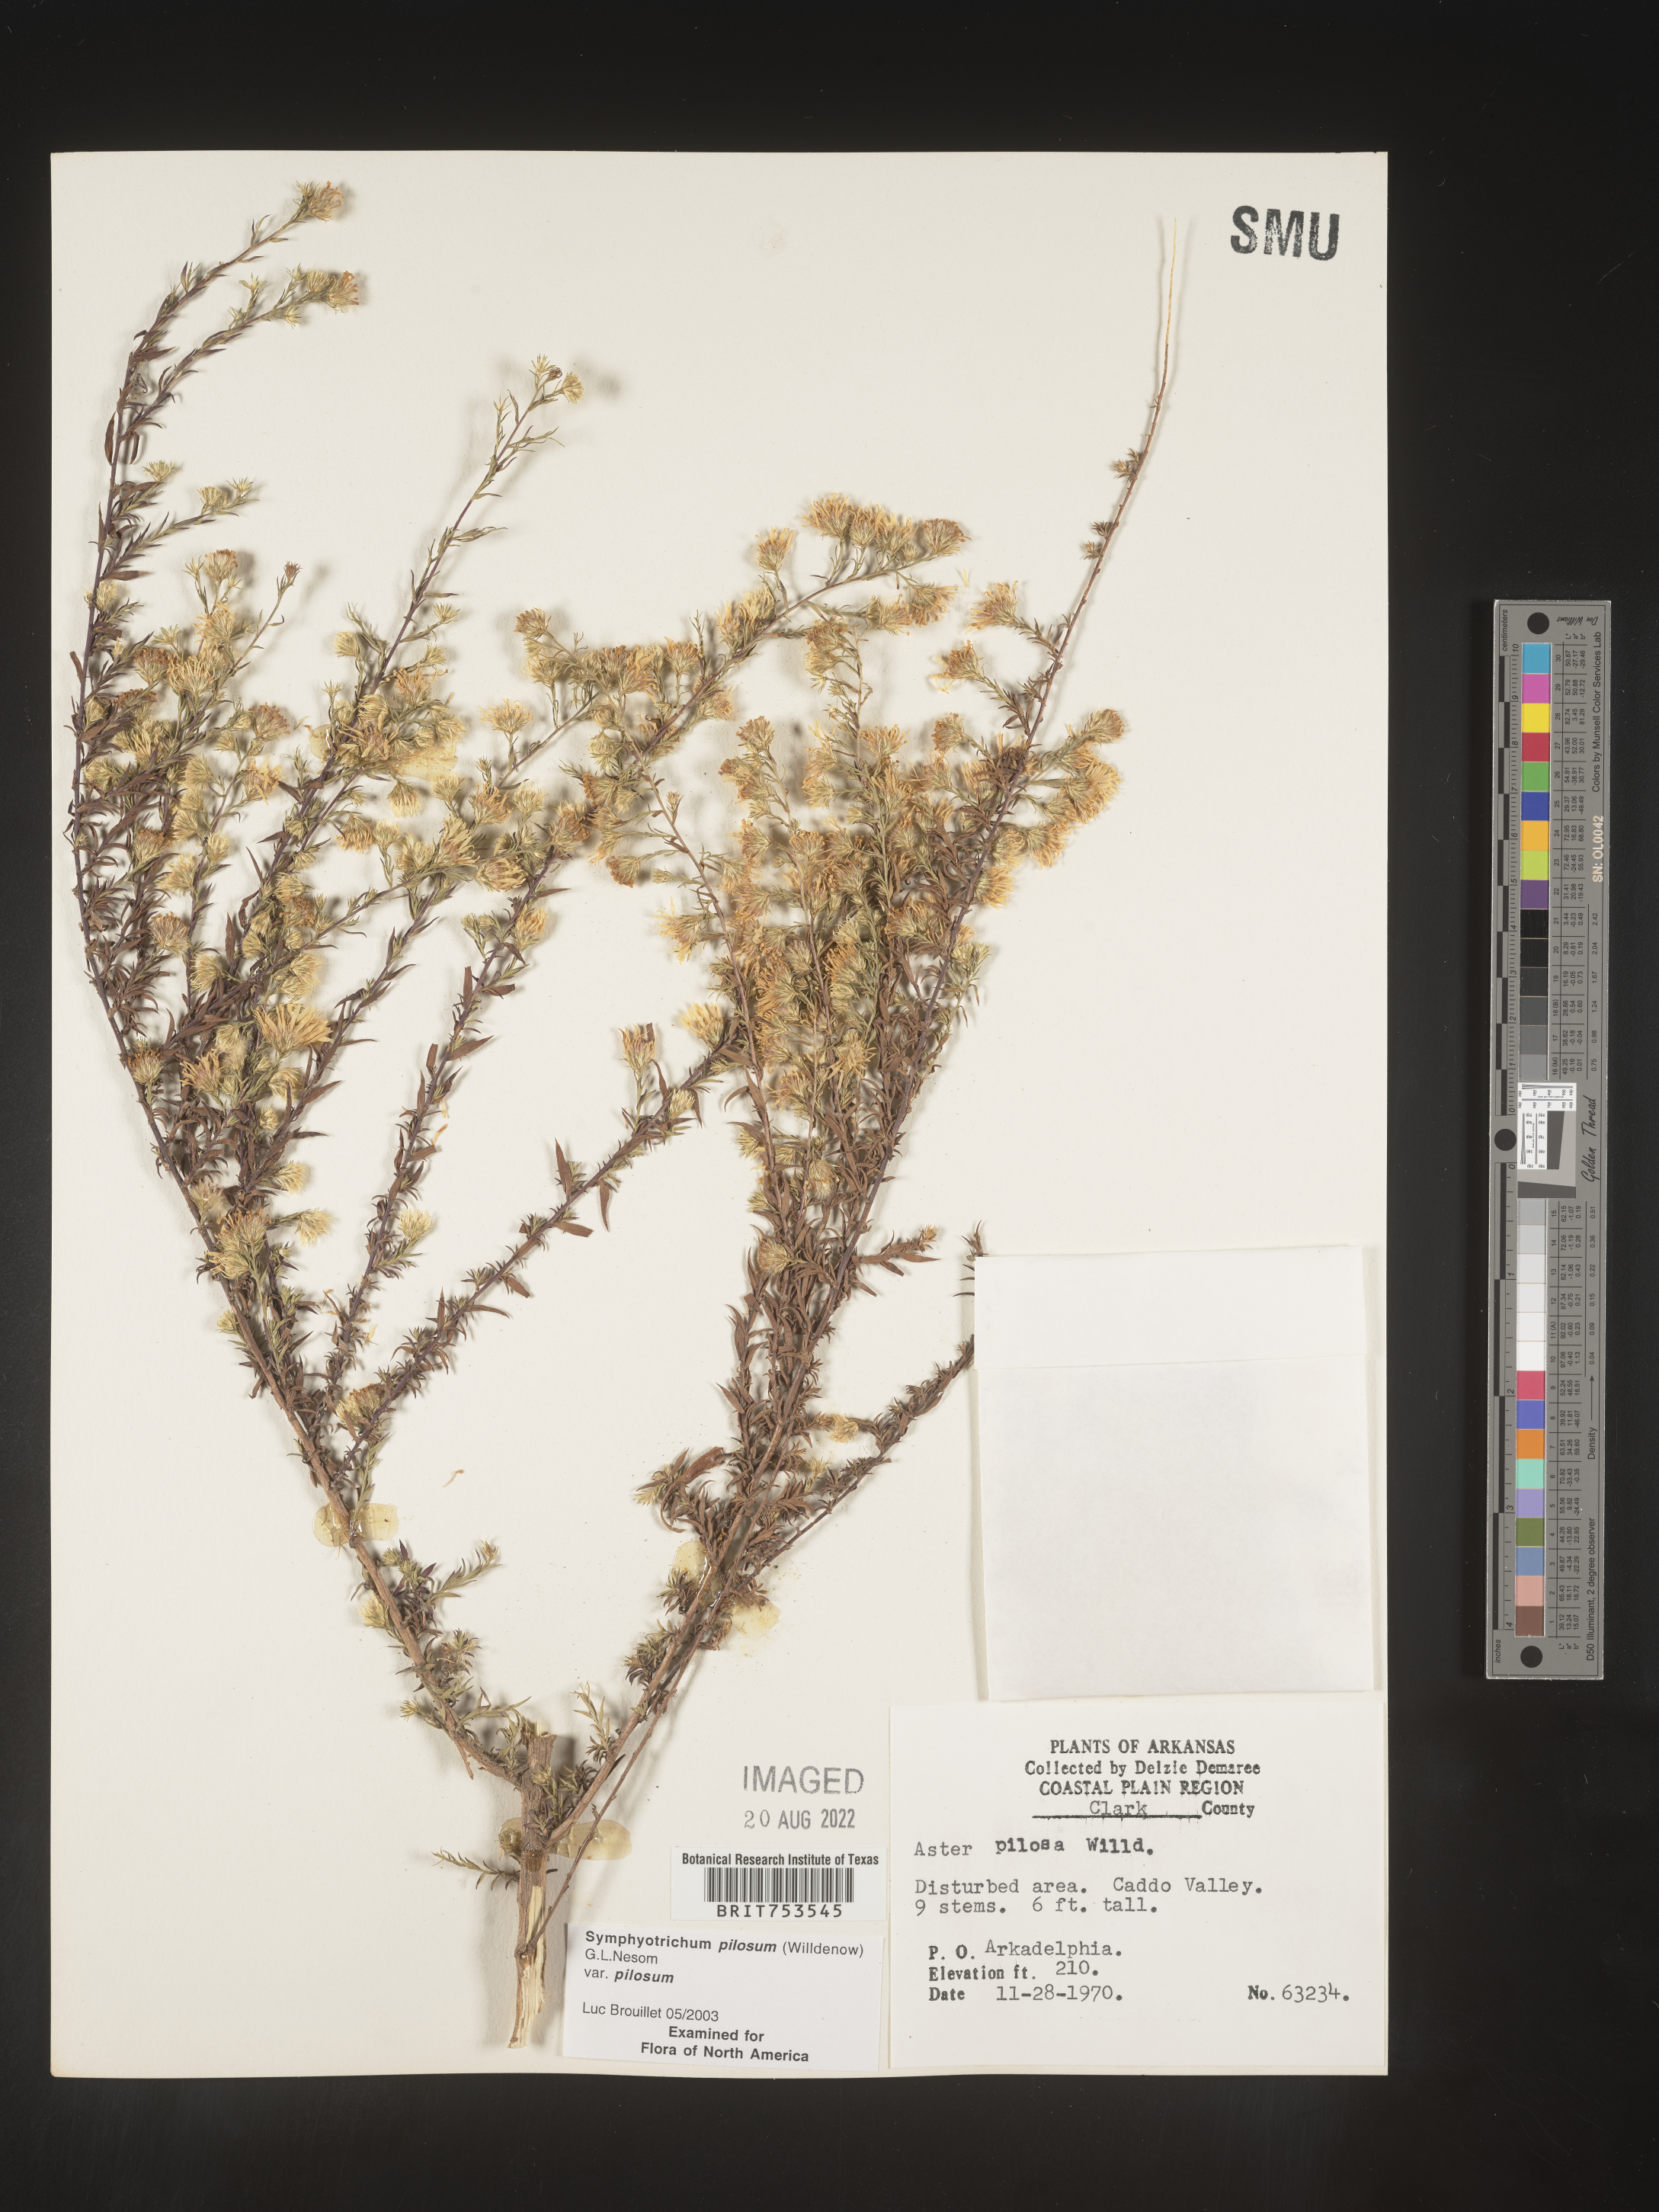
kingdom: Plantae
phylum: Tracheophyta
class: Magnoliopsida
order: Asterales
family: Asteraceae
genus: Symphyotrichum
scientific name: Symphyotrichum pilosum
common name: Awl aster
